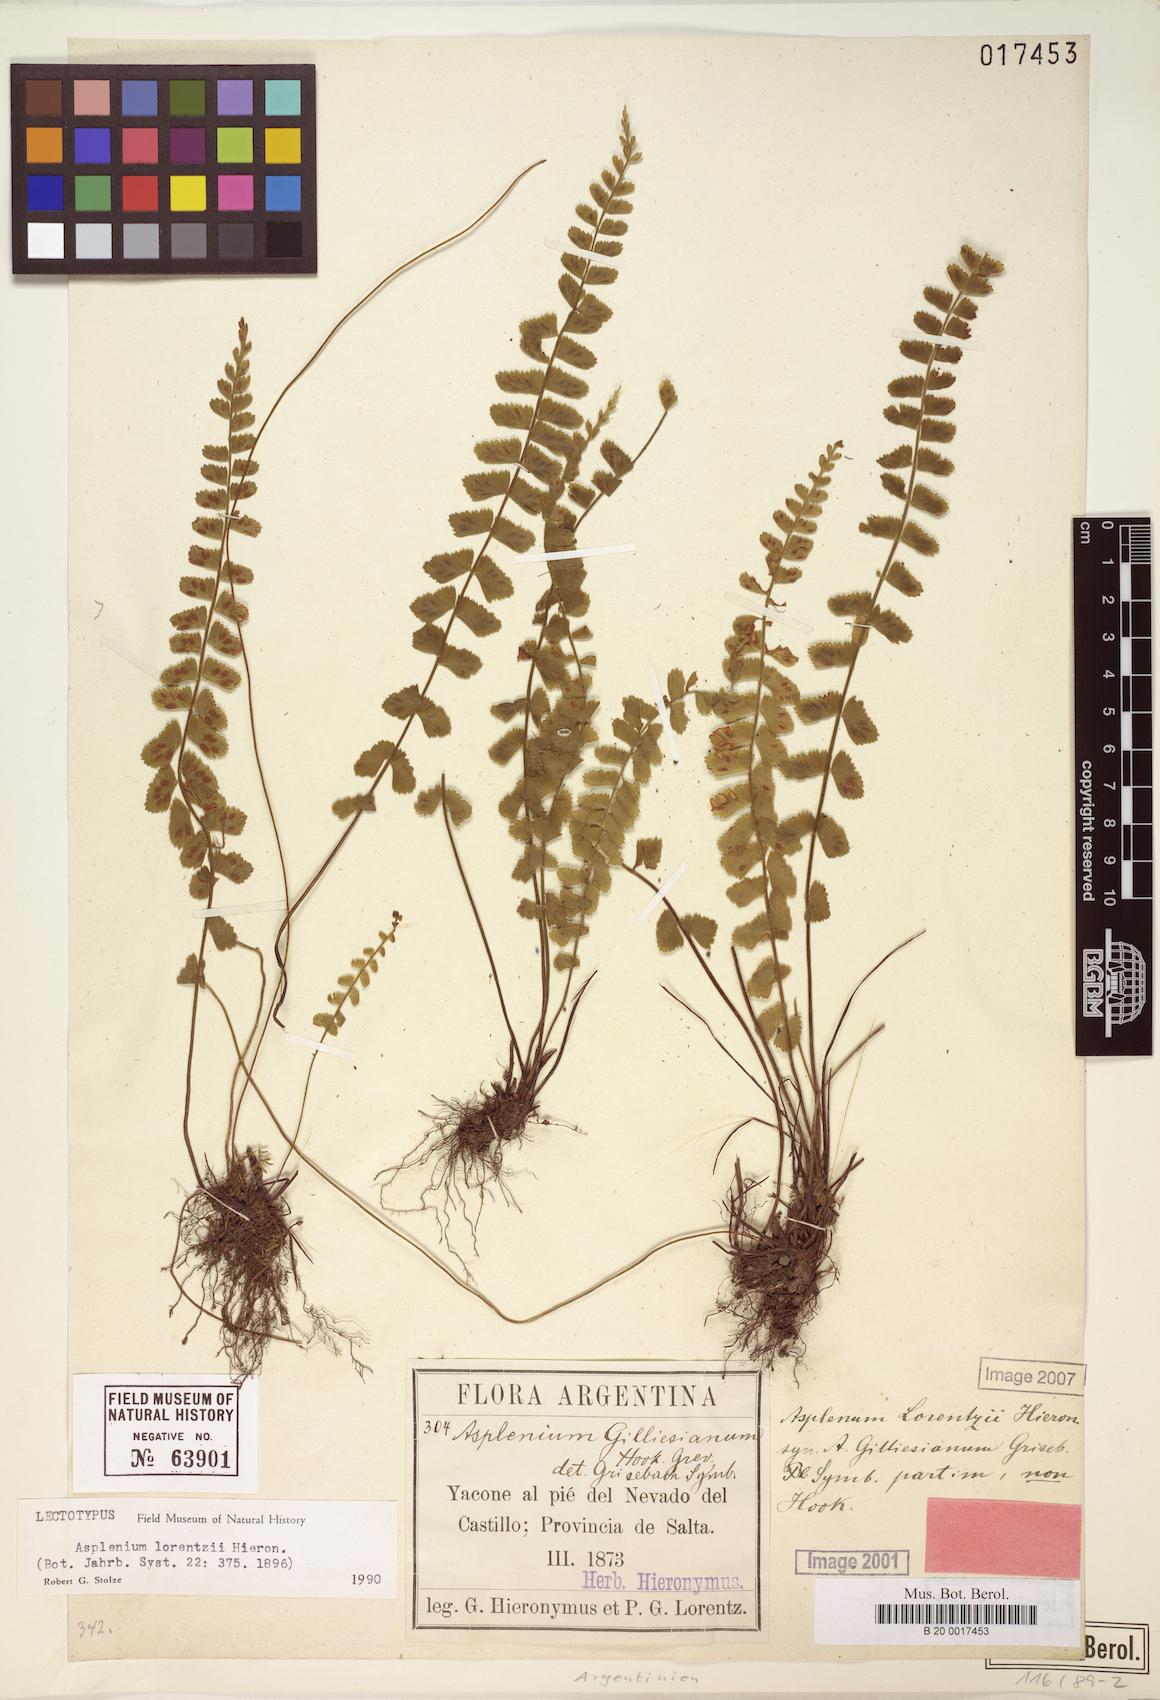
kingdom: Plantae
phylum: Tracheophyta
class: Polypodiopsida
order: Polypodiales
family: Thelypteridaceae
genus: Amauropelta
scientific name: Amauropelta argentina
